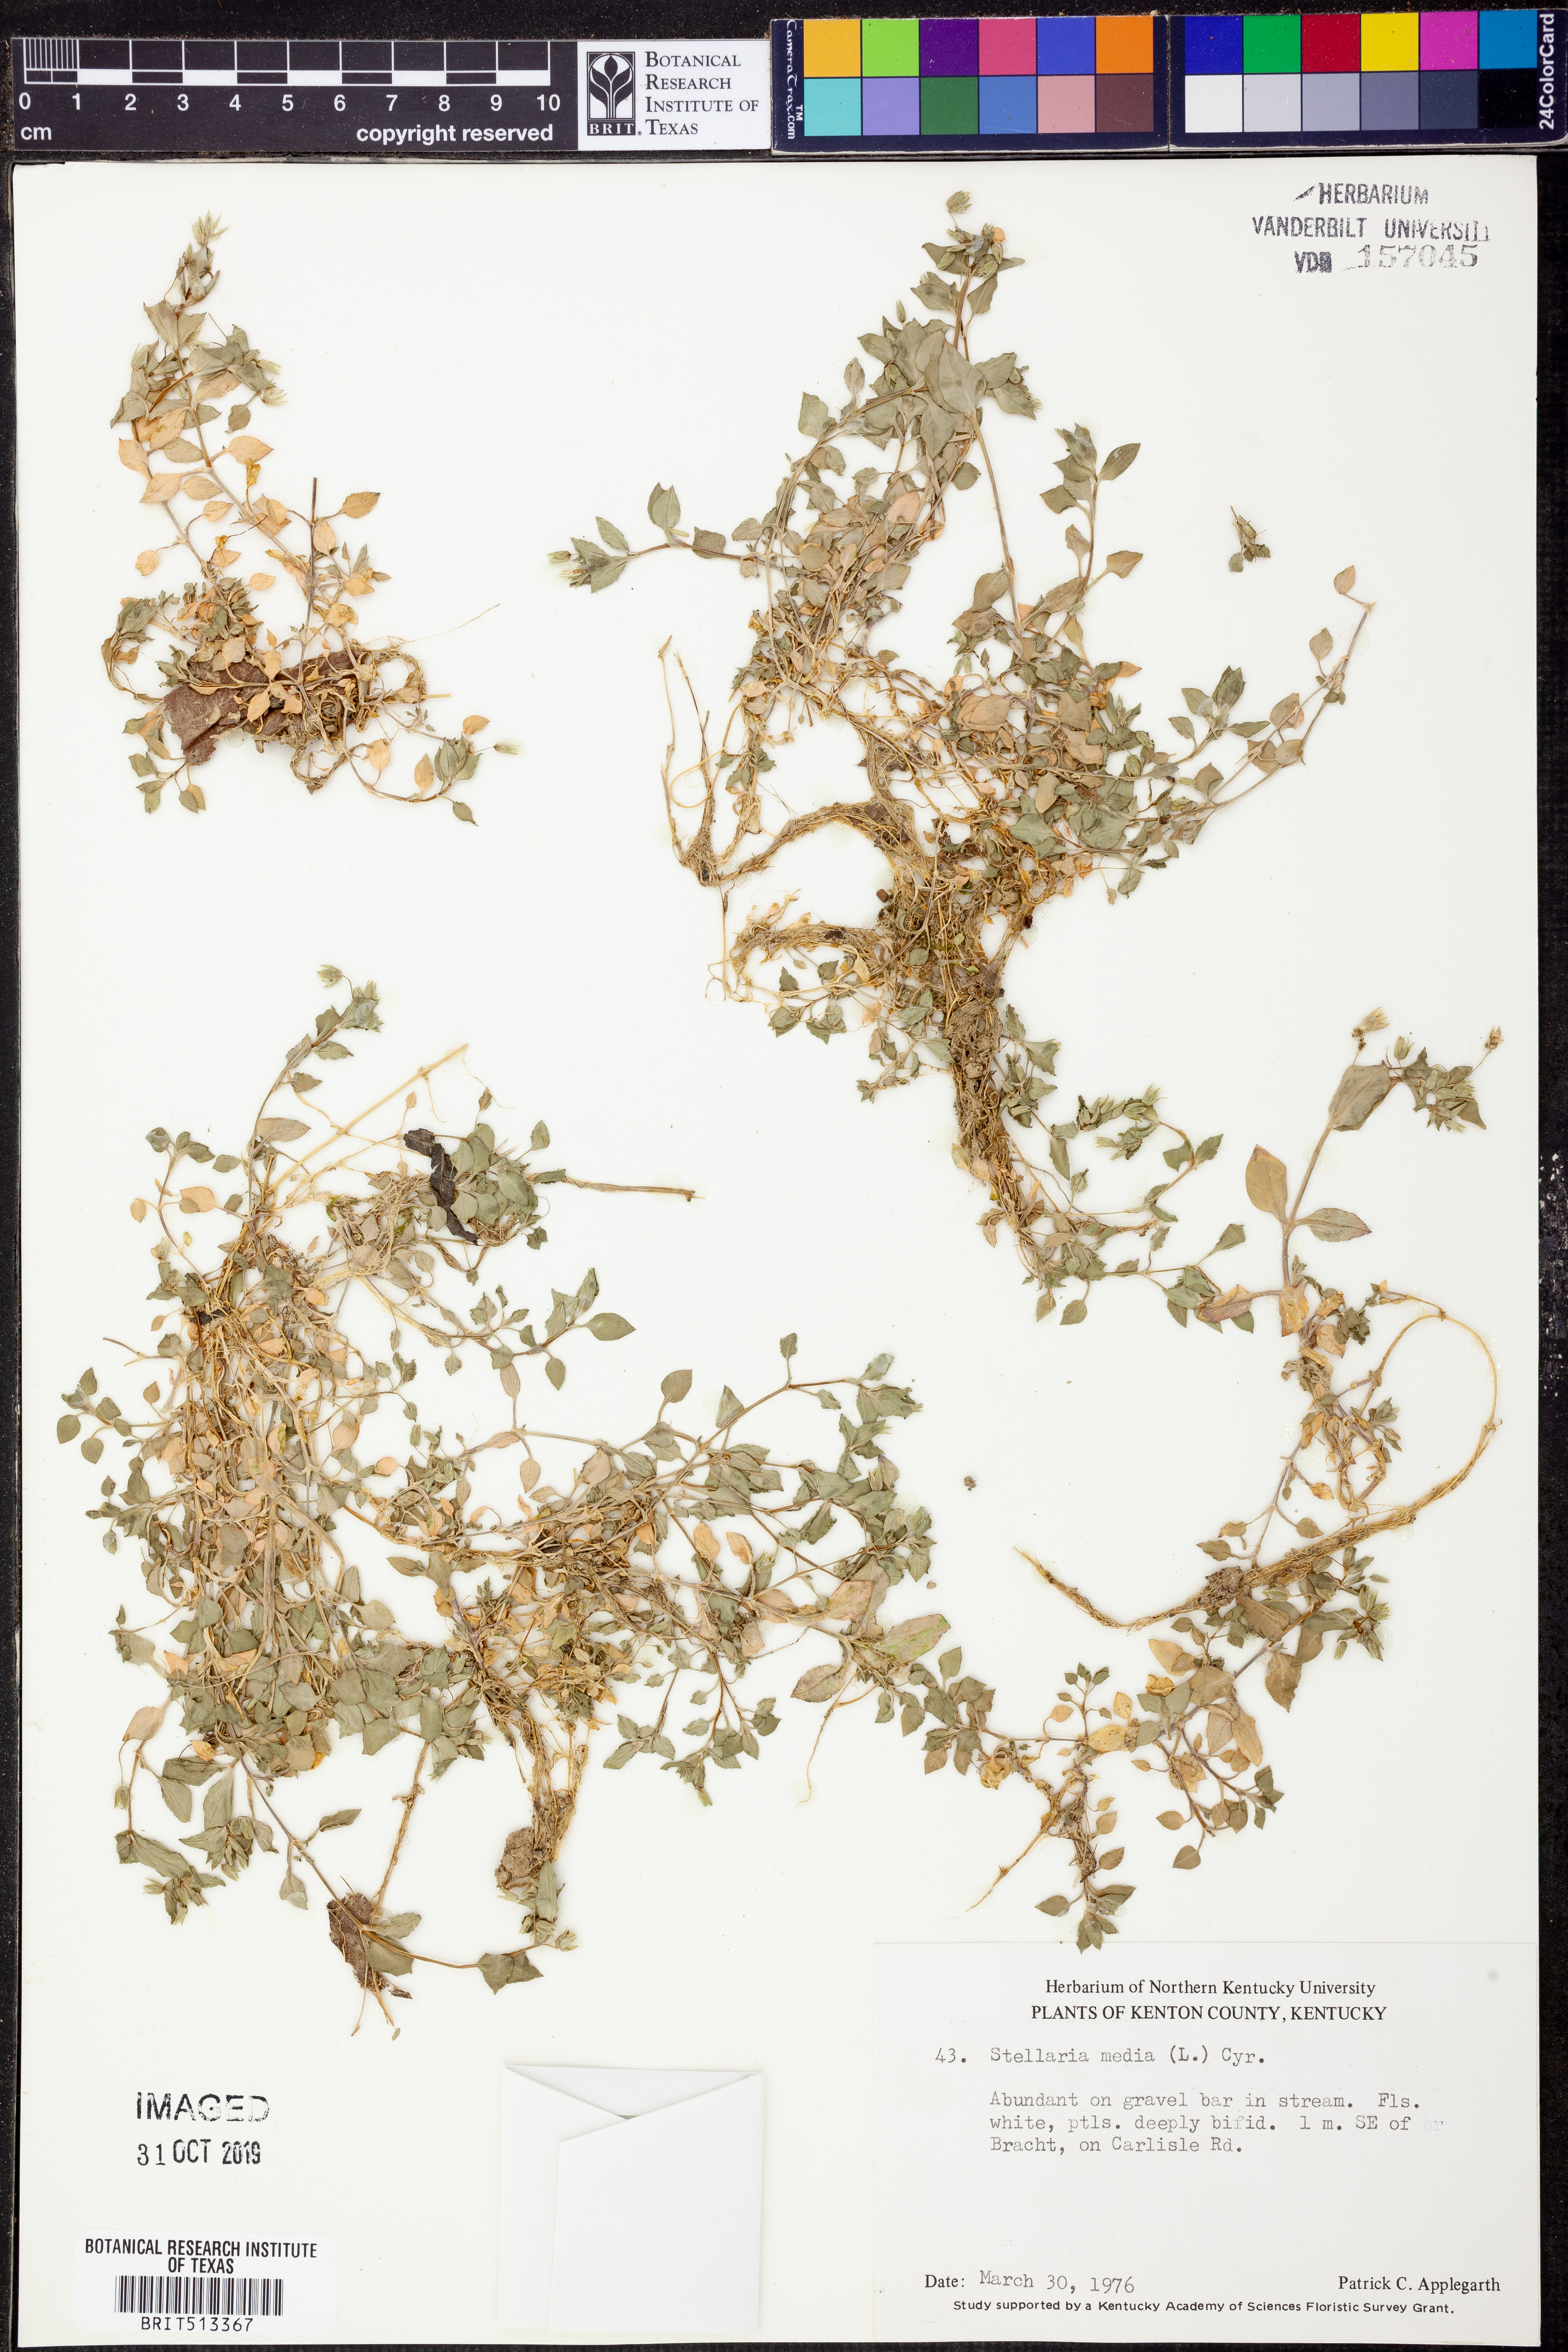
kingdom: Plantae
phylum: Tracheophyta
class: Magnoliopsida
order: Caryophyllales
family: Caryophyllaceae
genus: Stellaria
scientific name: Stellaria media
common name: Common chickweed
